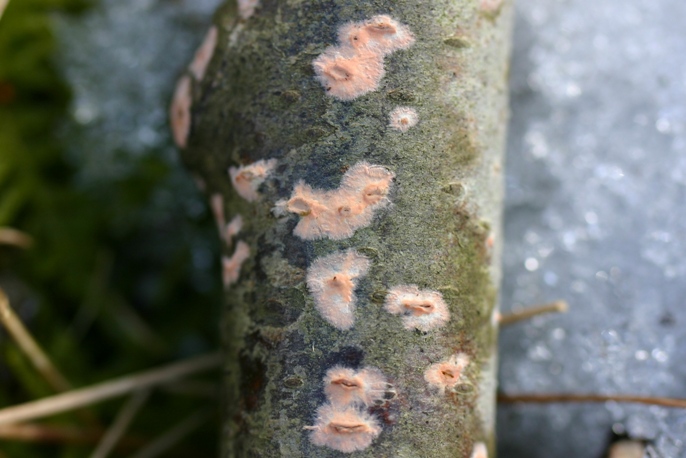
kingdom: Fungi
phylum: Basidiomycota
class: Agaricomycetes
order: Russulales
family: Peniophoraceae
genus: Peniophora
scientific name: Peniophora incarnata
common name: laksefarvet voksskind
